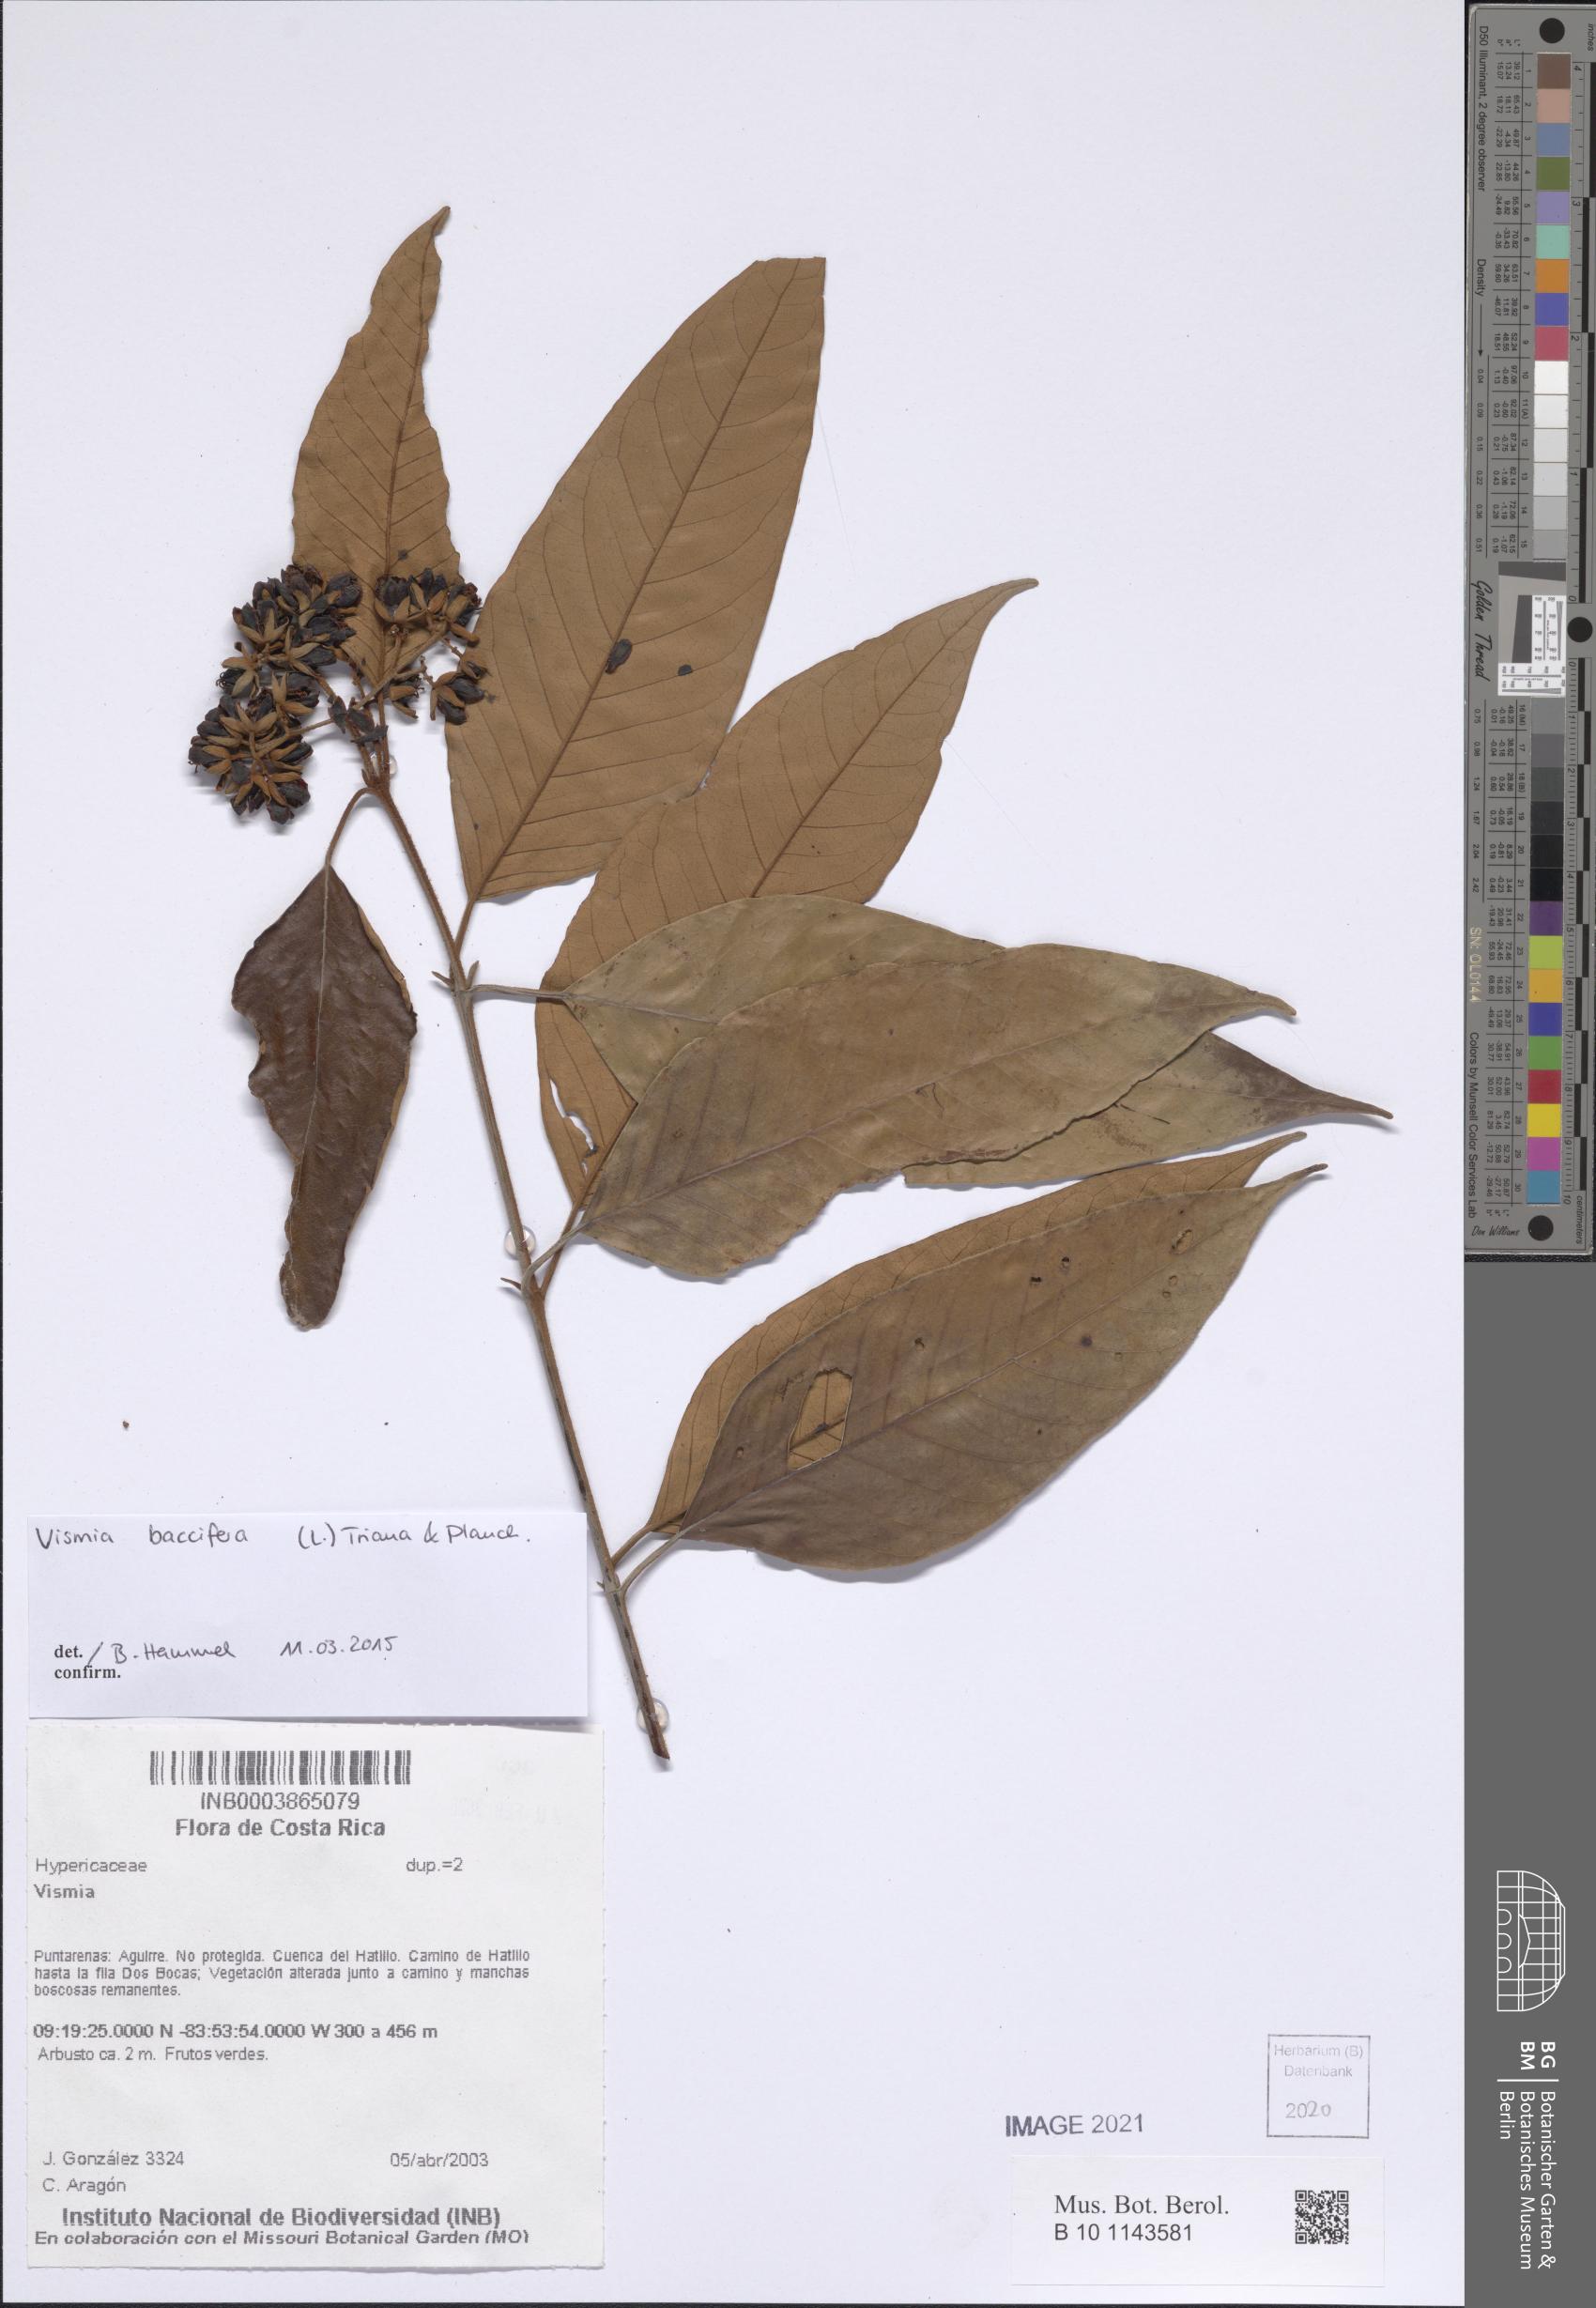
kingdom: Plantae
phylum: Tracheophyta
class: Magnoliopsida
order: Malpighiales
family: Hypericaceae
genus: Vismia
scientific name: Vismia baccifera
